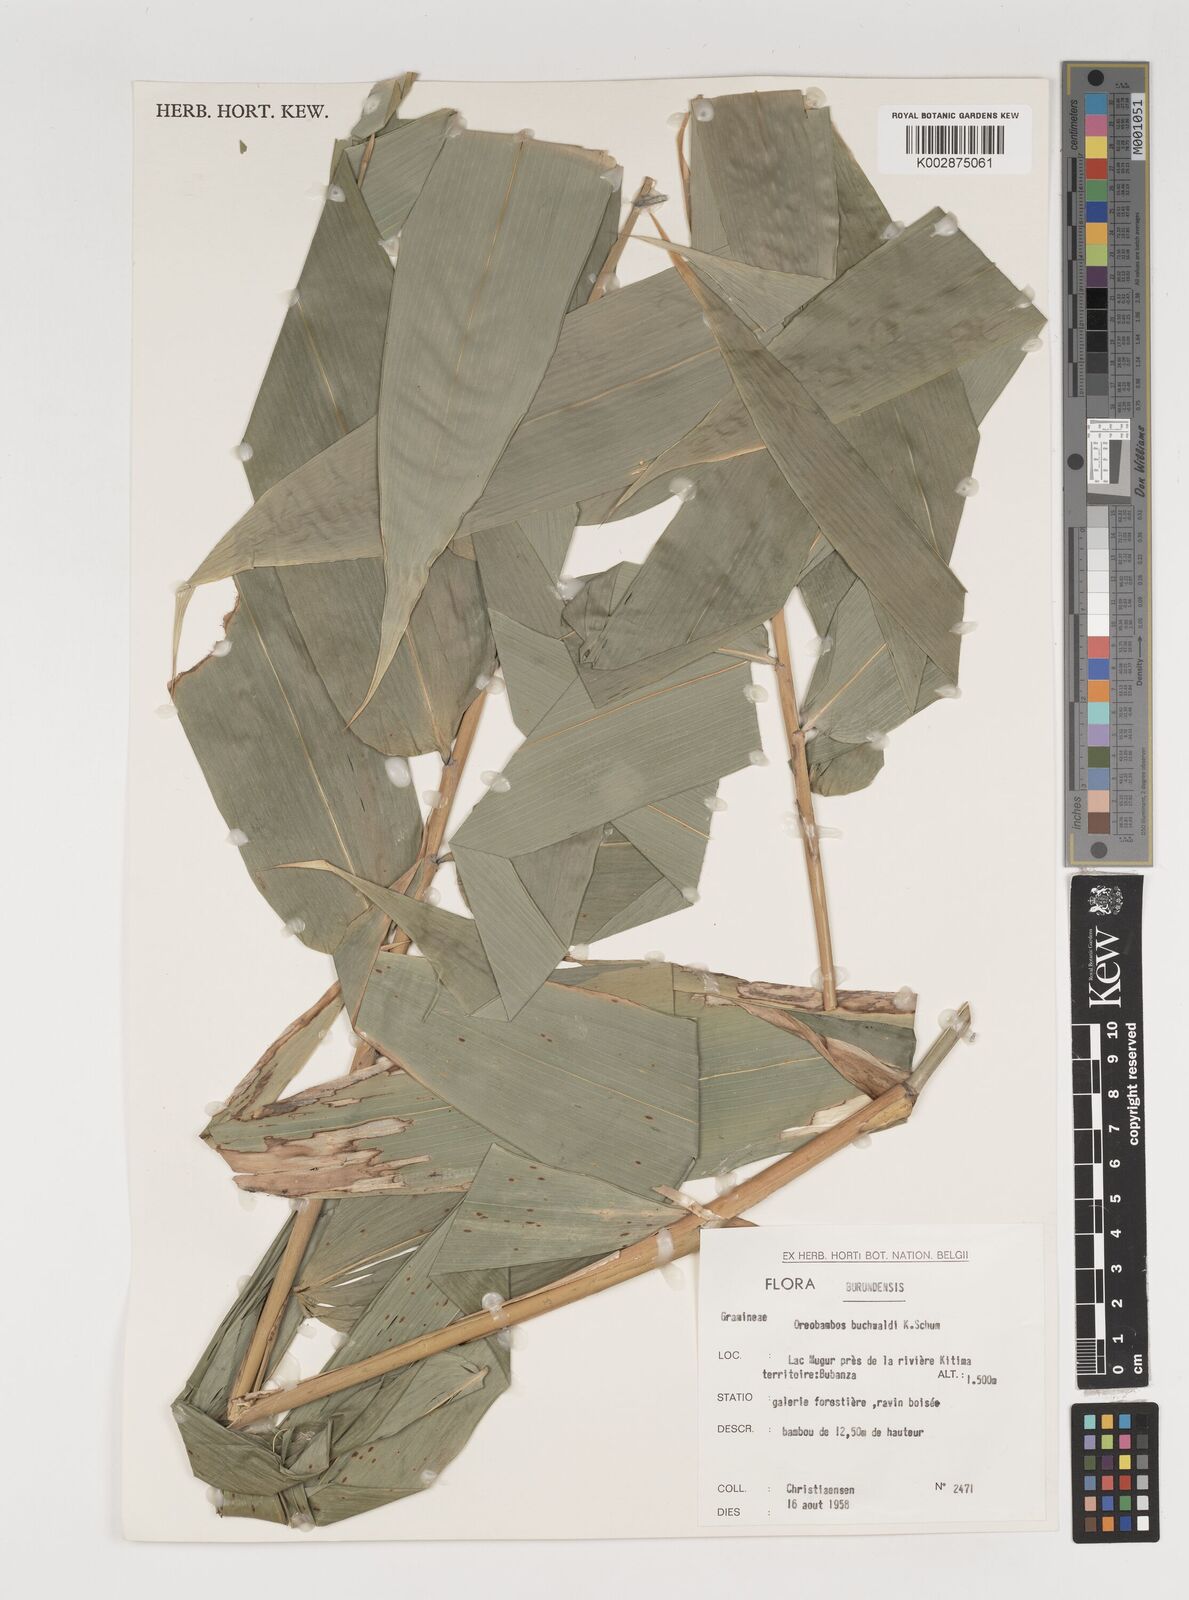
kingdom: Plantae
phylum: Tracheophyta
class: Liliopsida
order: Poales
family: Poaceae
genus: Oreobambos
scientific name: Oreobambos buchwaldii
